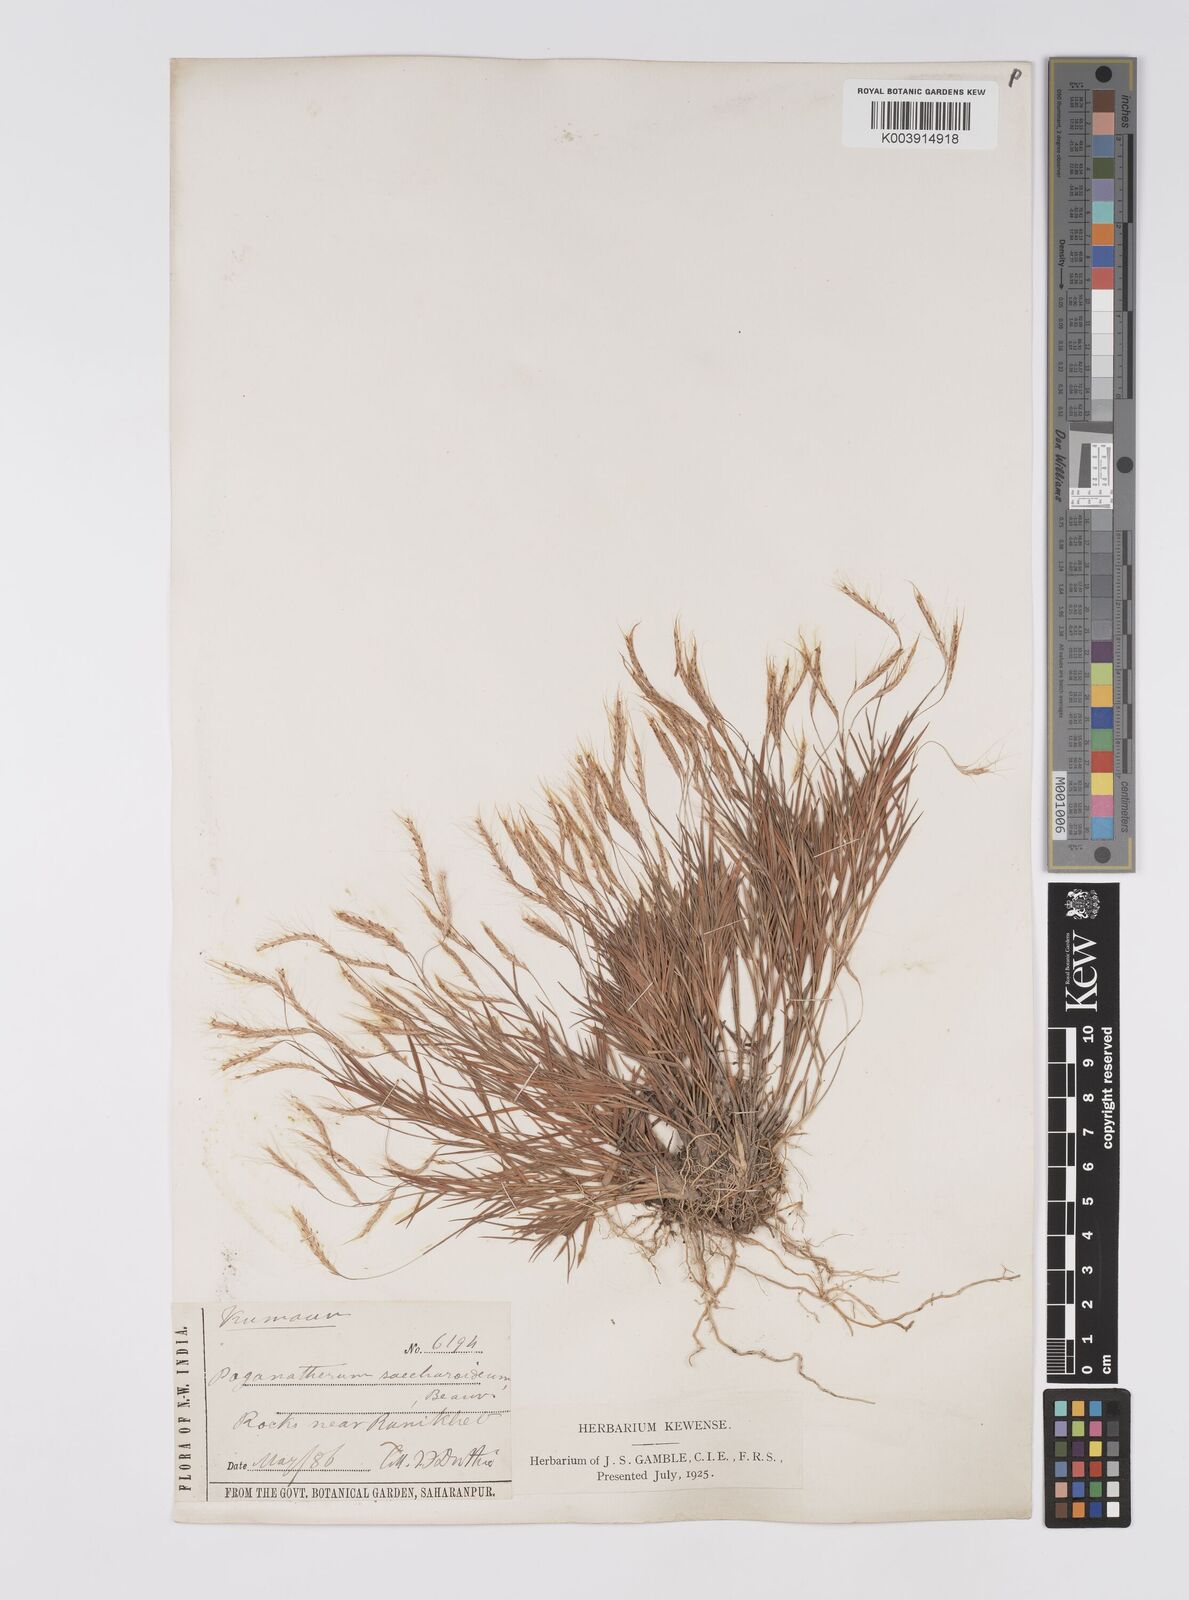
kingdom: Plantae
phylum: Tracheophyta
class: Liliopsida
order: Poales
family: Poaceae
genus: Pogonatherum
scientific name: Pogonatherum paniceum
